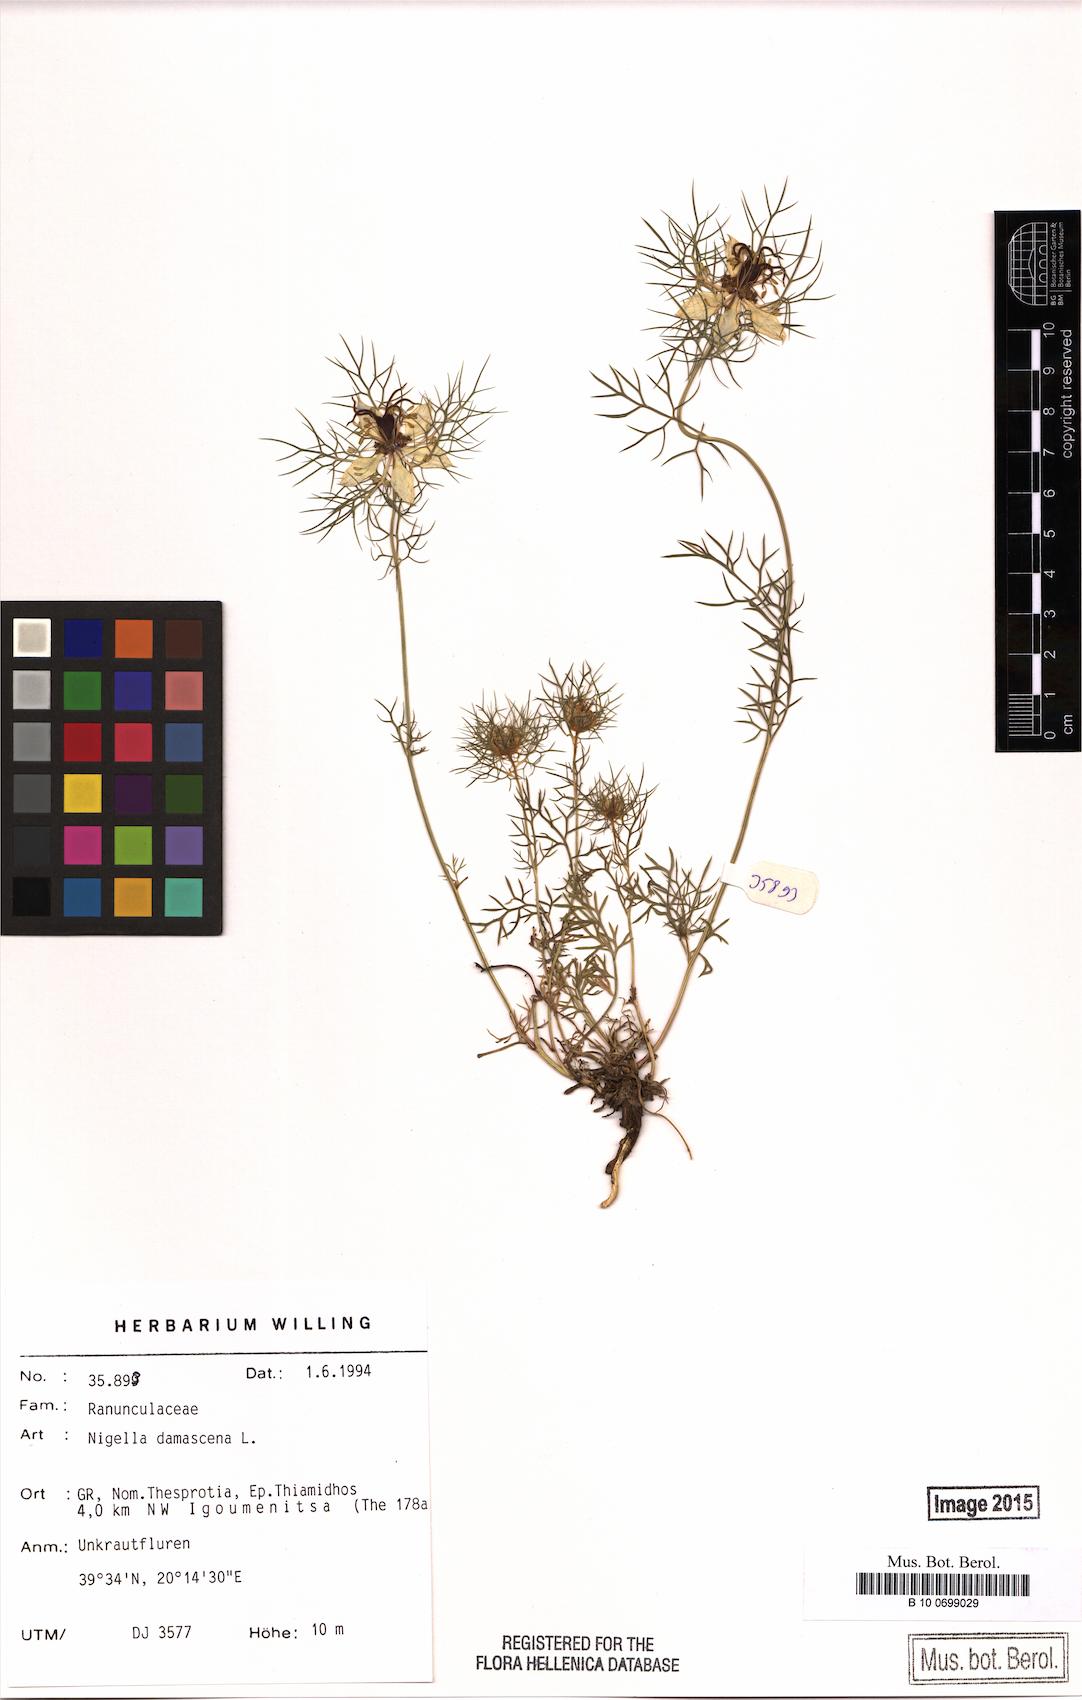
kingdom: Plantae
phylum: Tracheophyta
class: Magnoliopsida
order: Ranunculales
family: Ranunculaceae
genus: Nigella
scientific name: Nigella damascena
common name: Love-in-a-mist
